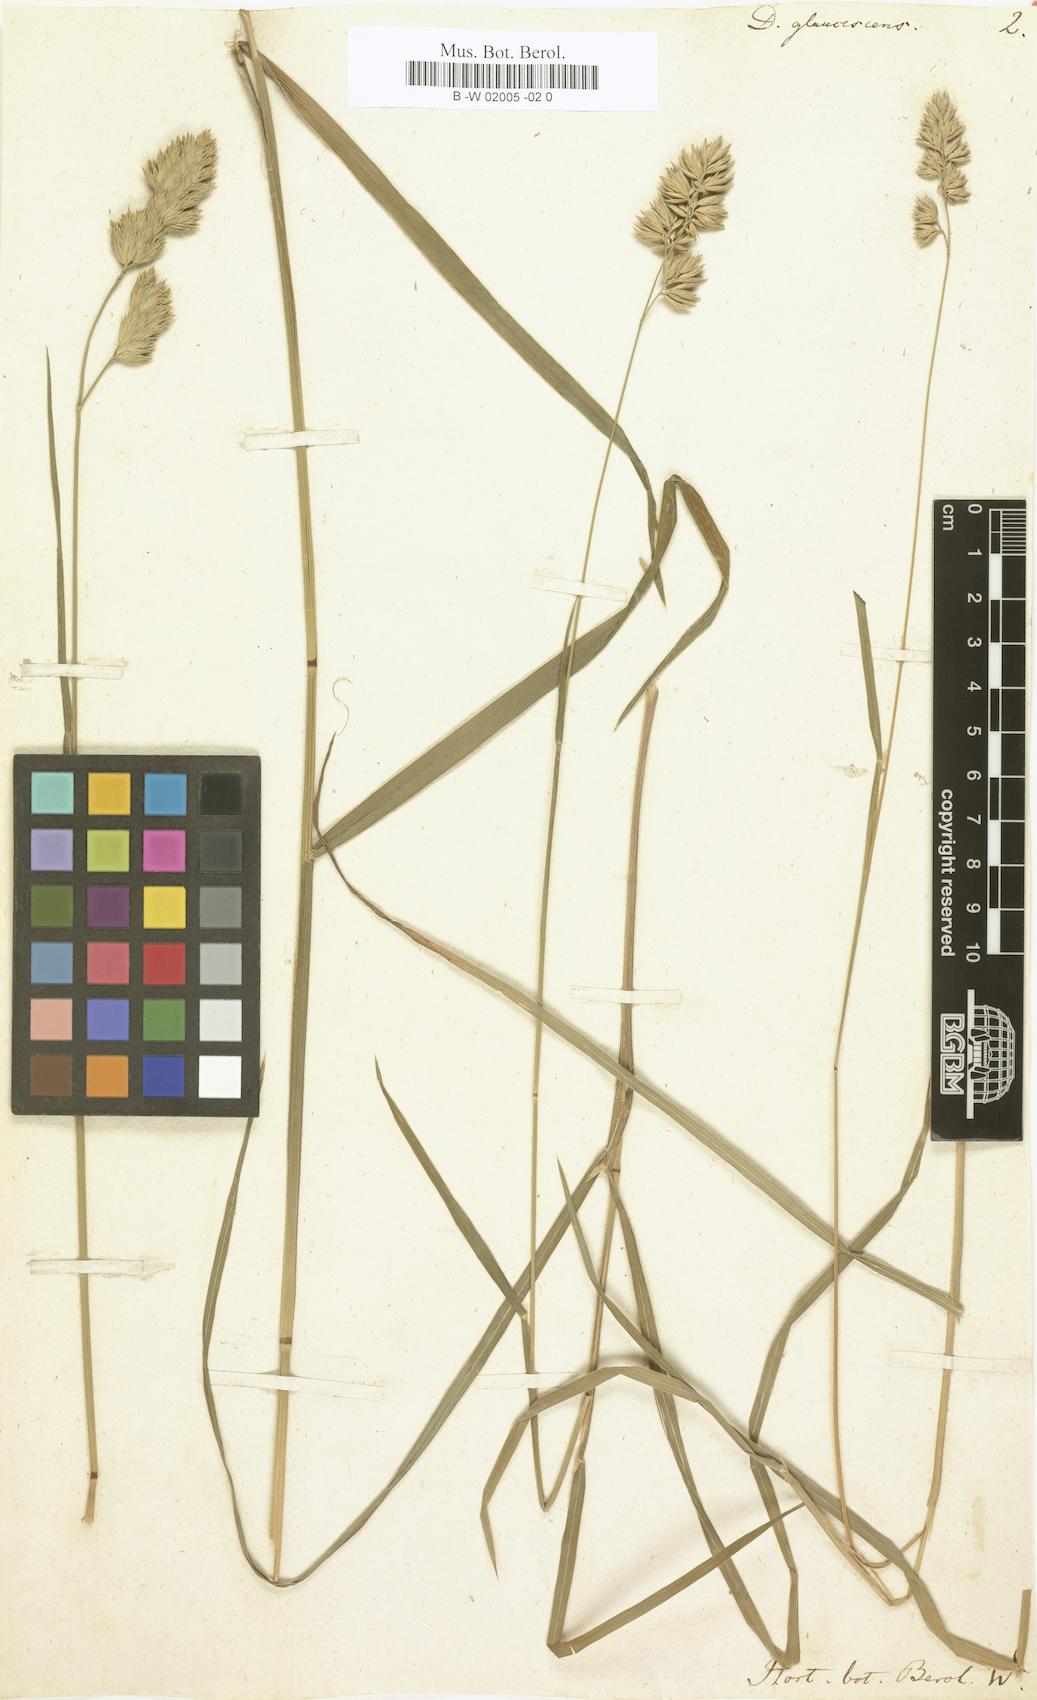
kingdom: Plantae
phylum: Tracheophyta
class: Liliopsida
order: Poales
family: Poaceae
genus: Dactylis
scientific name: Dactylis glomerata
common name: Orchardgrass
